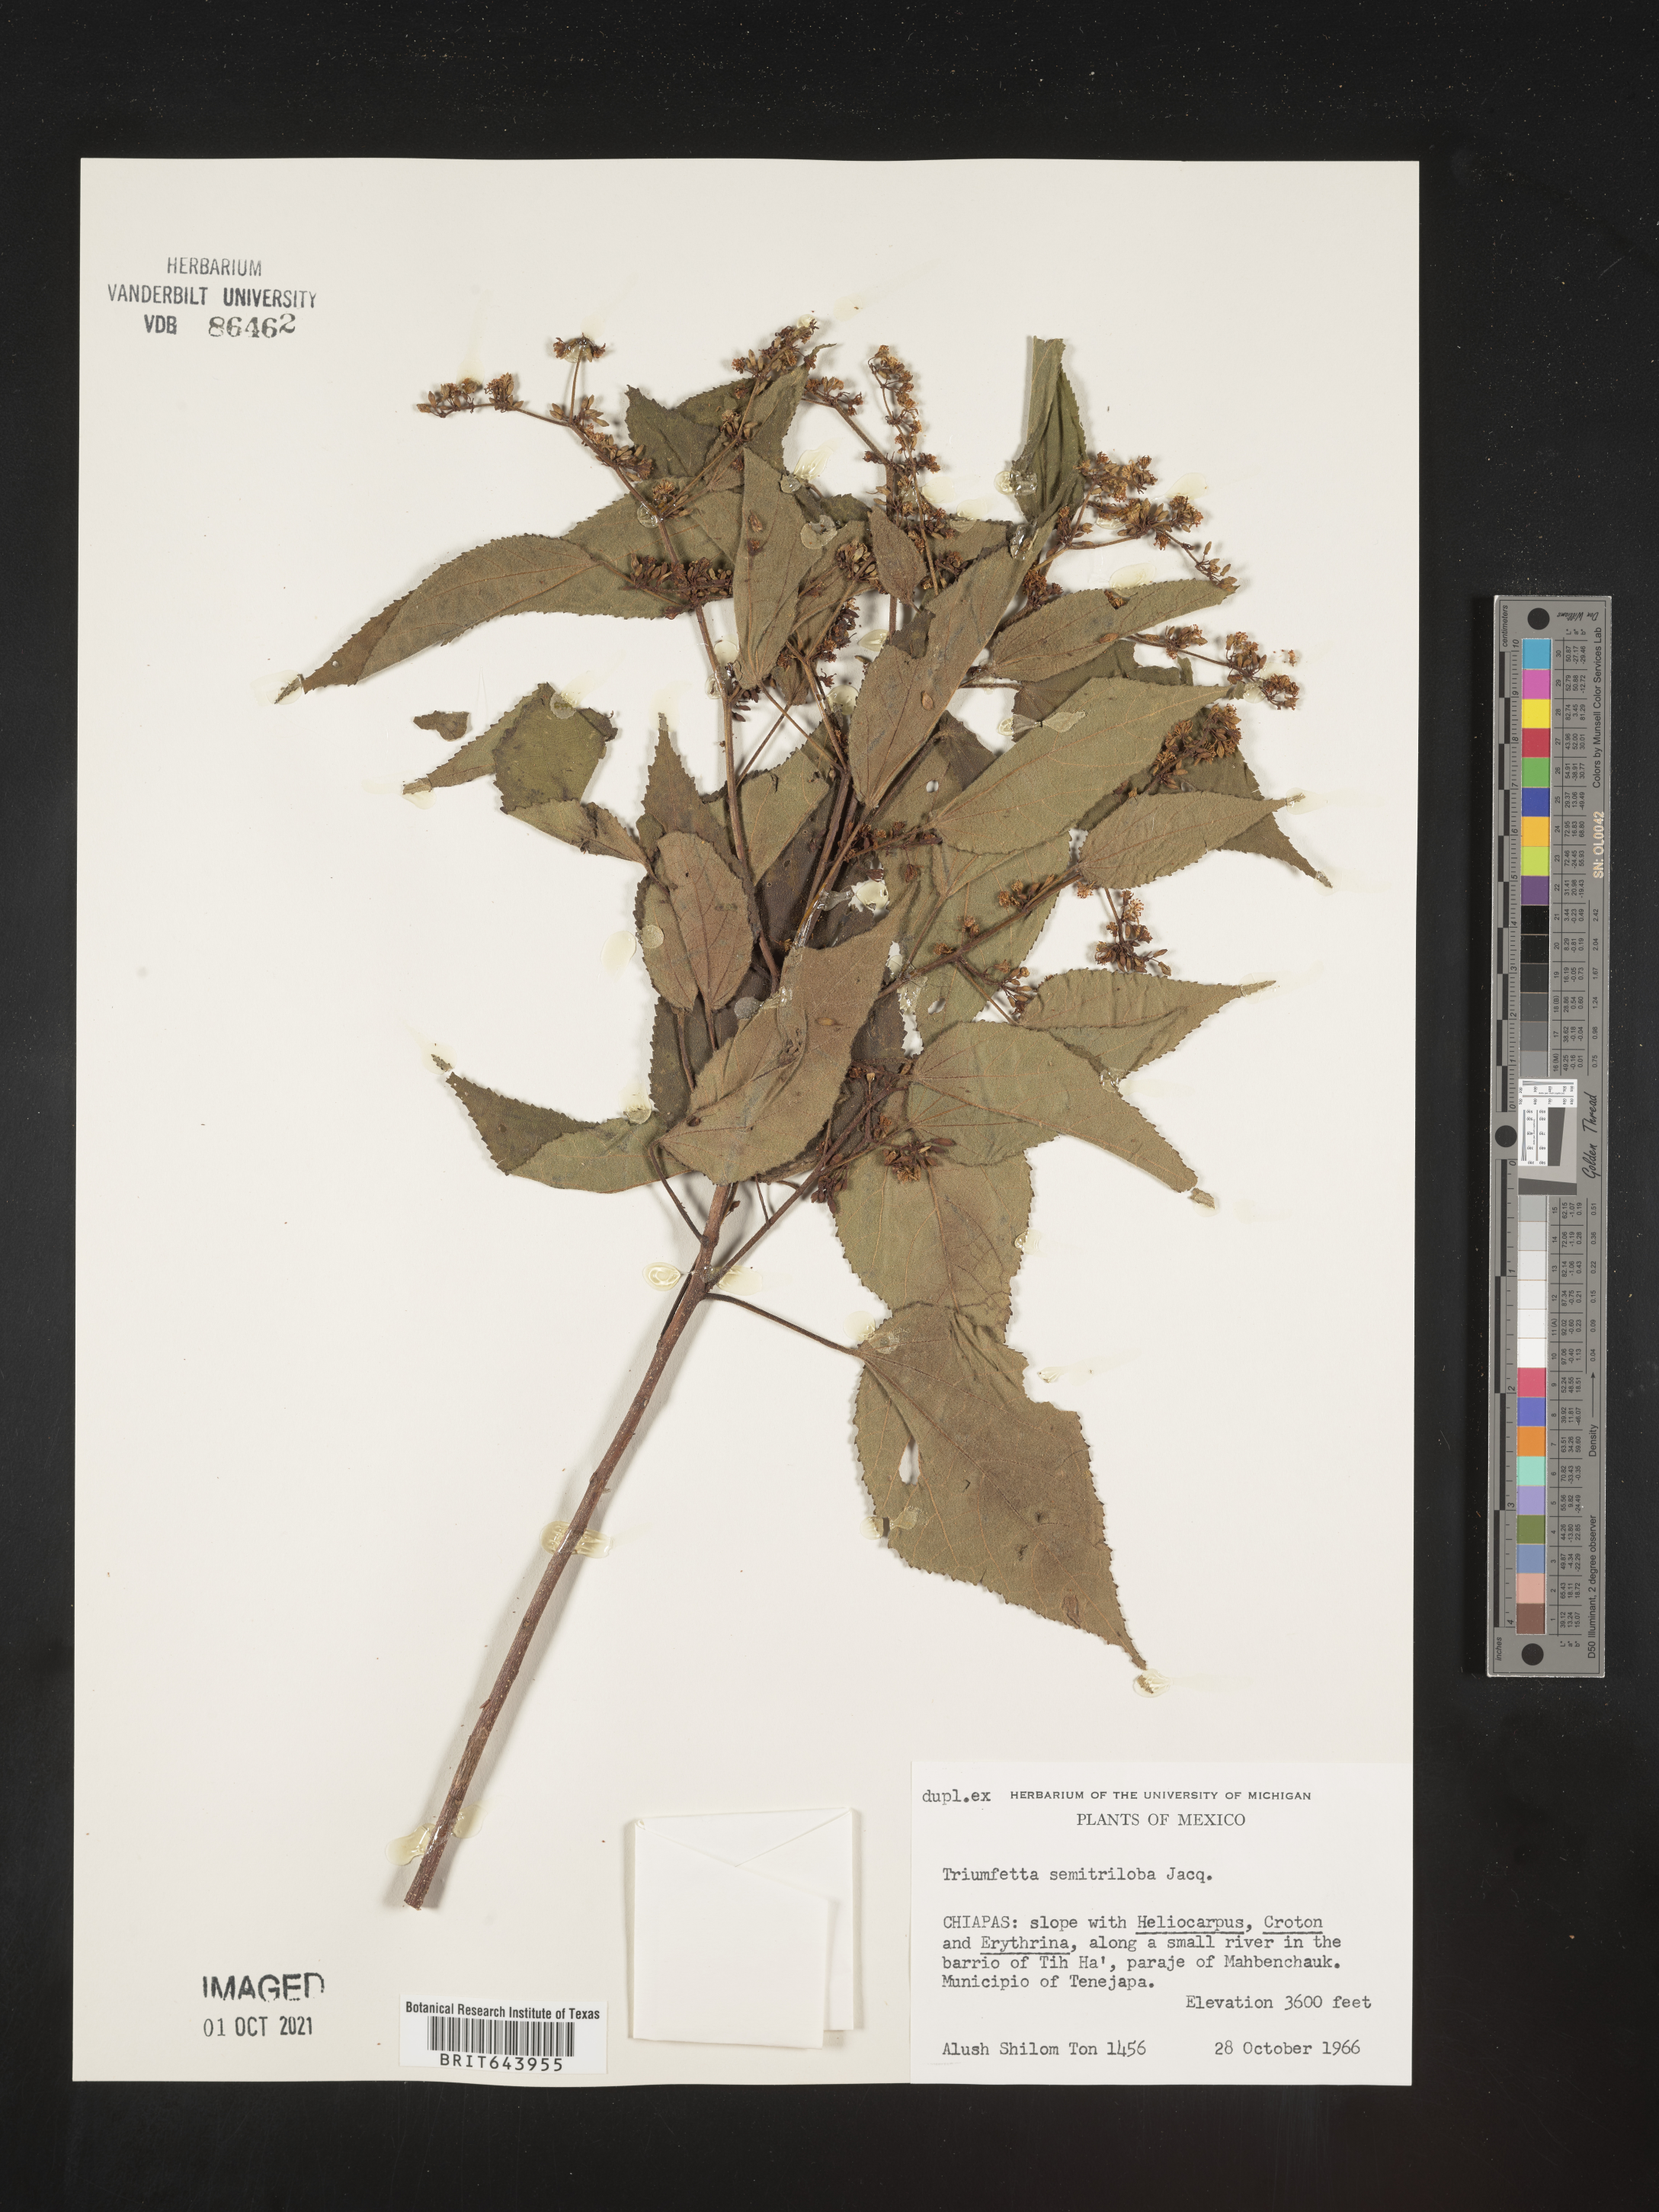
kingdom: Plantae
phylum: Tracheophyta
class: Magnoliopsida
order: Malvales
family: Malvaceae
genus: Triumfetta
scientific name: Triumfetta
